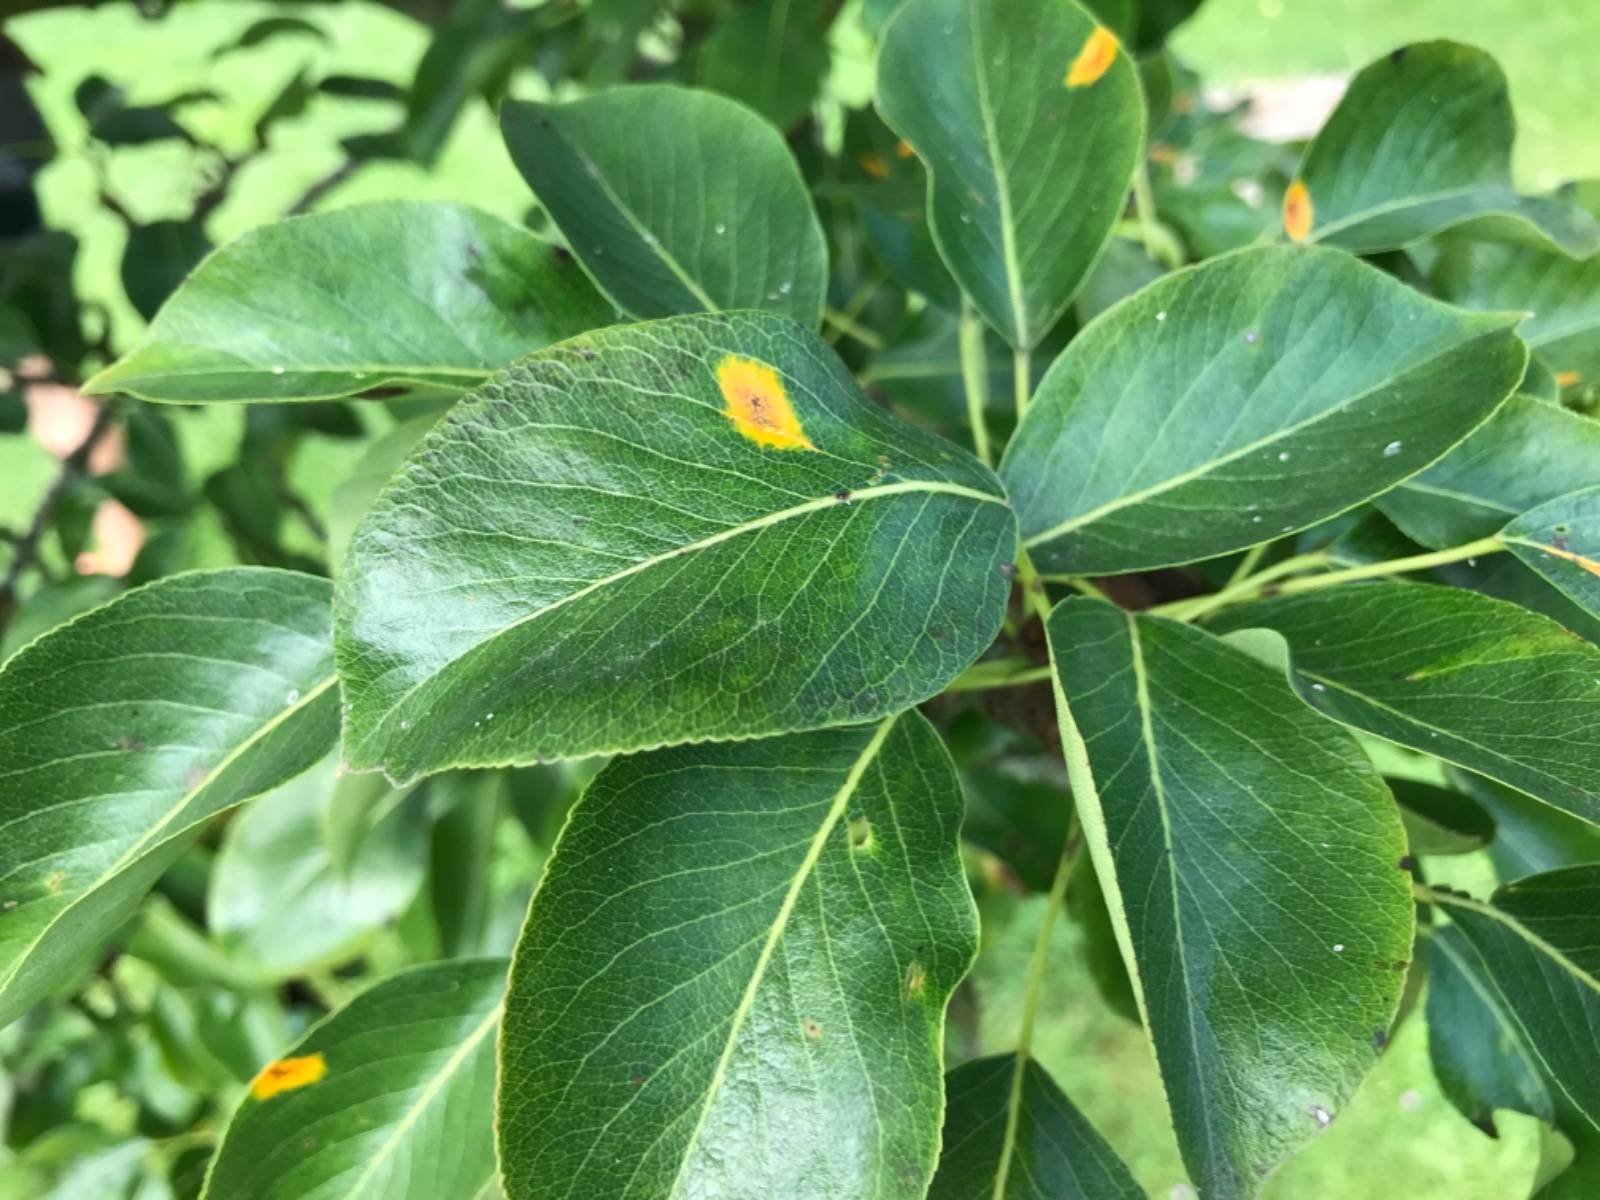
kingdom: Fungi
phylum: Basidiomycota
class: Pucciniomycetes
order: Pucciniales
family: Gymnosporangiaceae
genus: Gymnosporangium
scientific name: Gymnosporangium sabinae
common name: pæregitter-bævrerust
